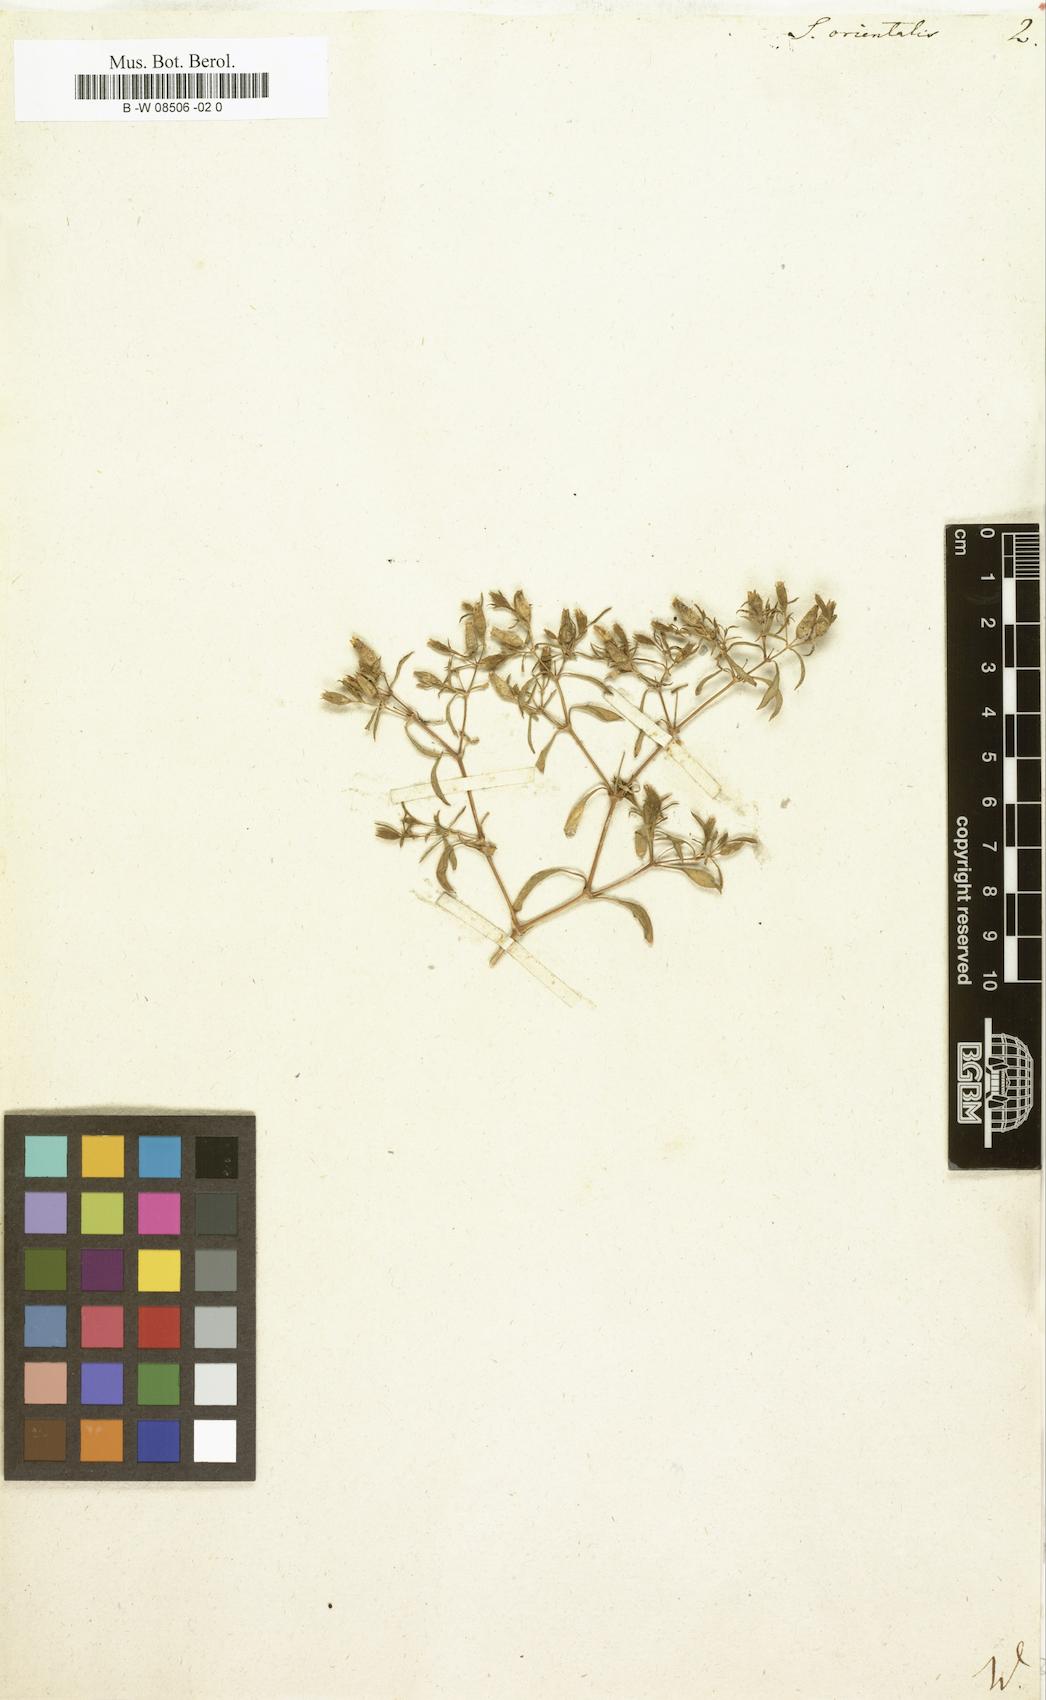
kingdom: Plantae
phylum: Tracheophyta
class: Magnoliopsida
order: Caryophyllales
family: Caryophyllaceae
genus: Saponaria
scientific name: Saponaria orientalis
